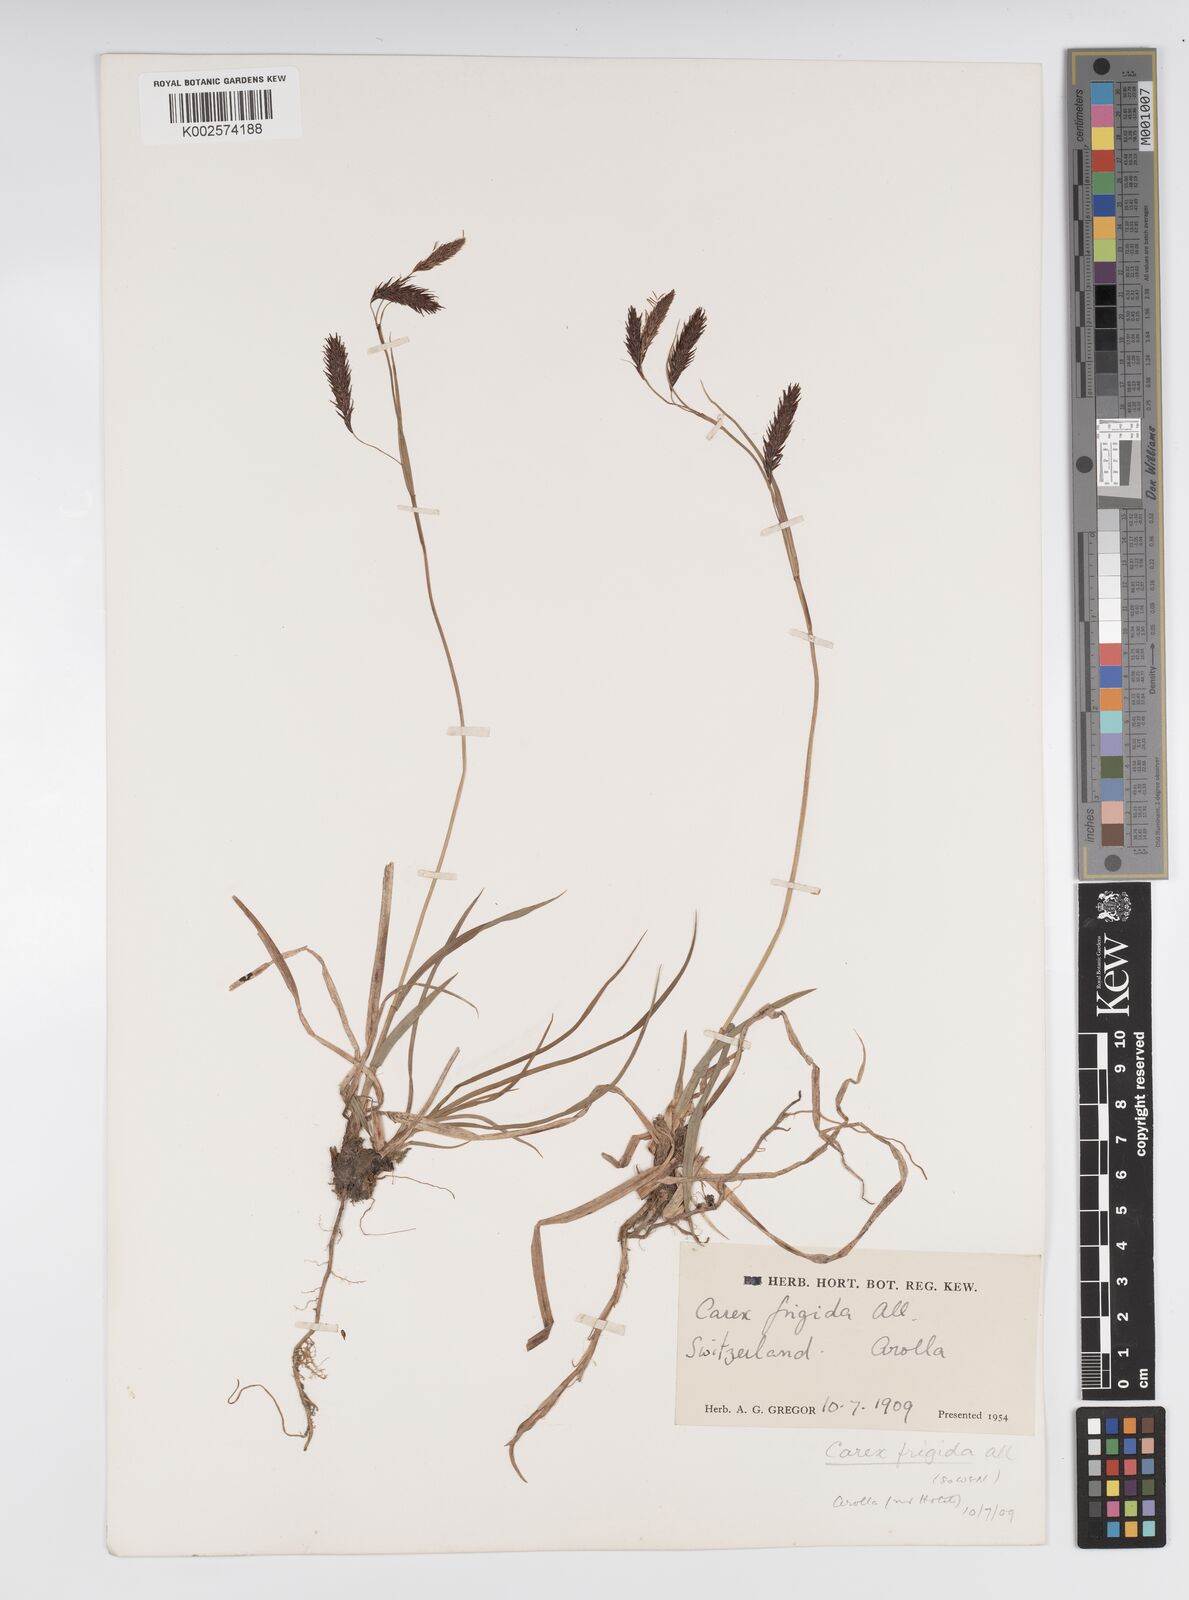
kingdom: Plantae
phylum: Tracheophyta
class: Liliopsida
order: Poales
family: Cyperaceae
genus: Carex
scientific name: Carex frigida
